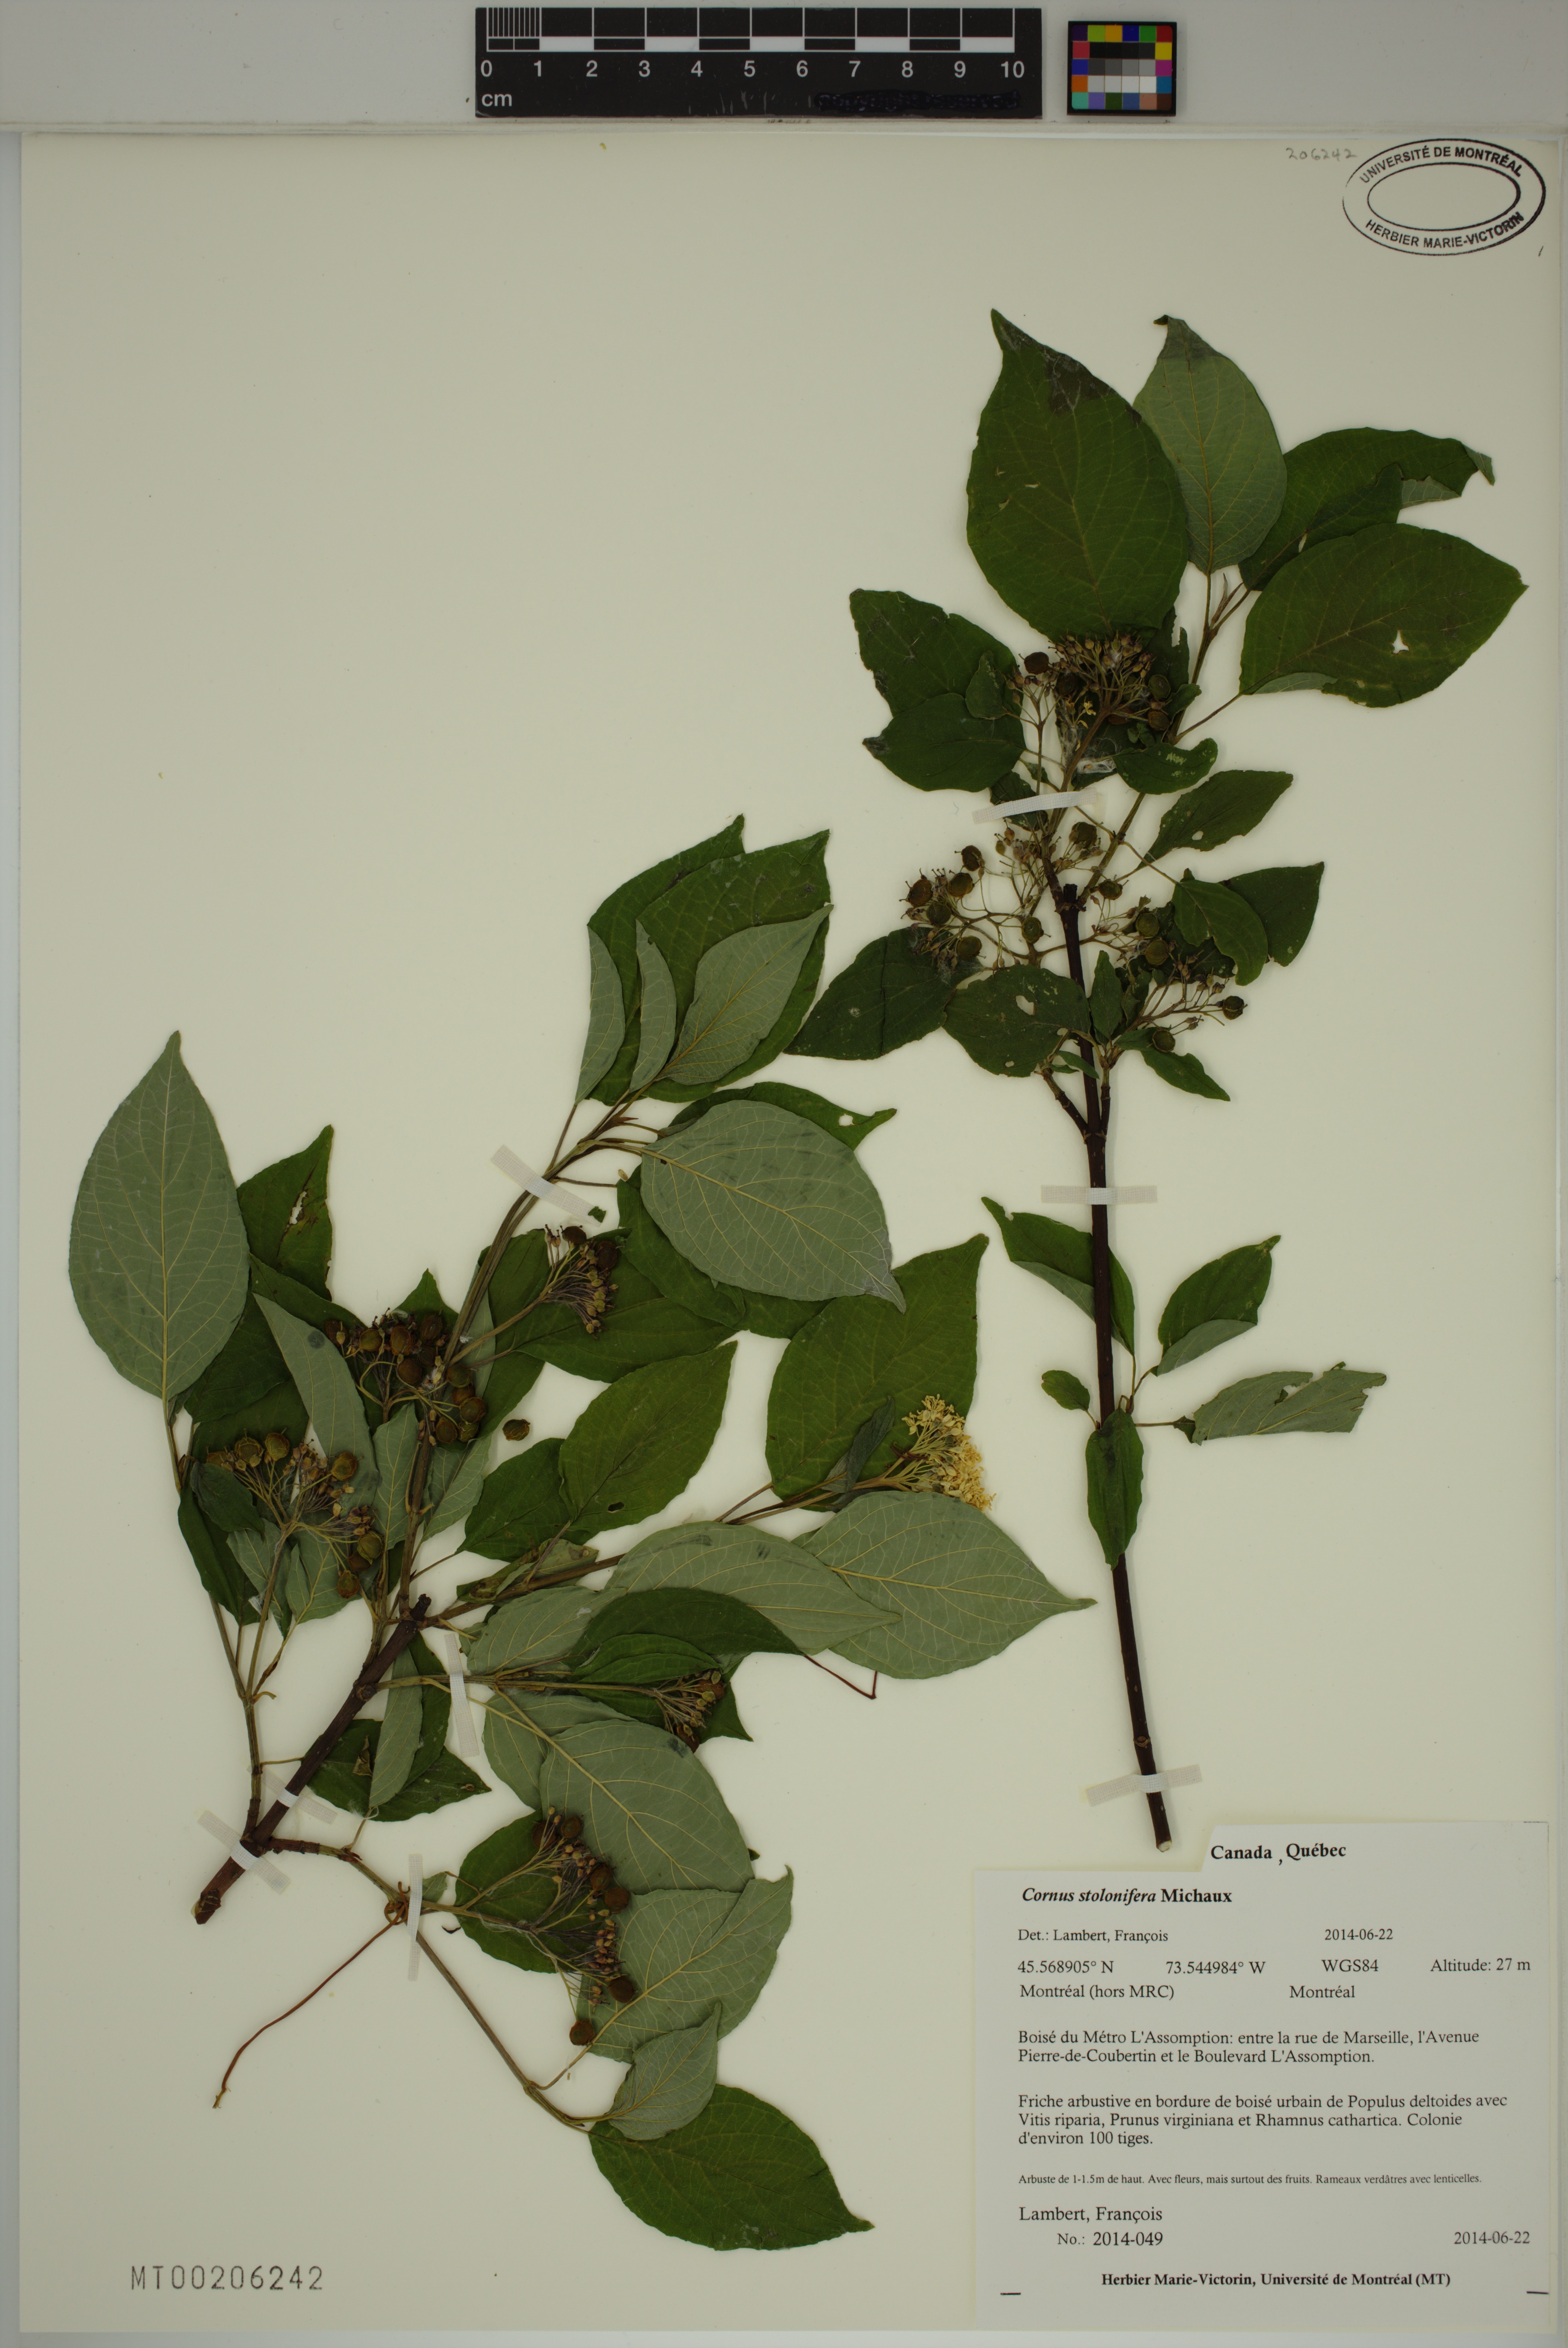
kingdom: Plantae
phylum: Tracheophyta
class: Magnoliopsida
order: Cornales
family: Cornaceae
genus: Cornus
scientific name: Cornus sericea
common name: Red-osier dogwood
